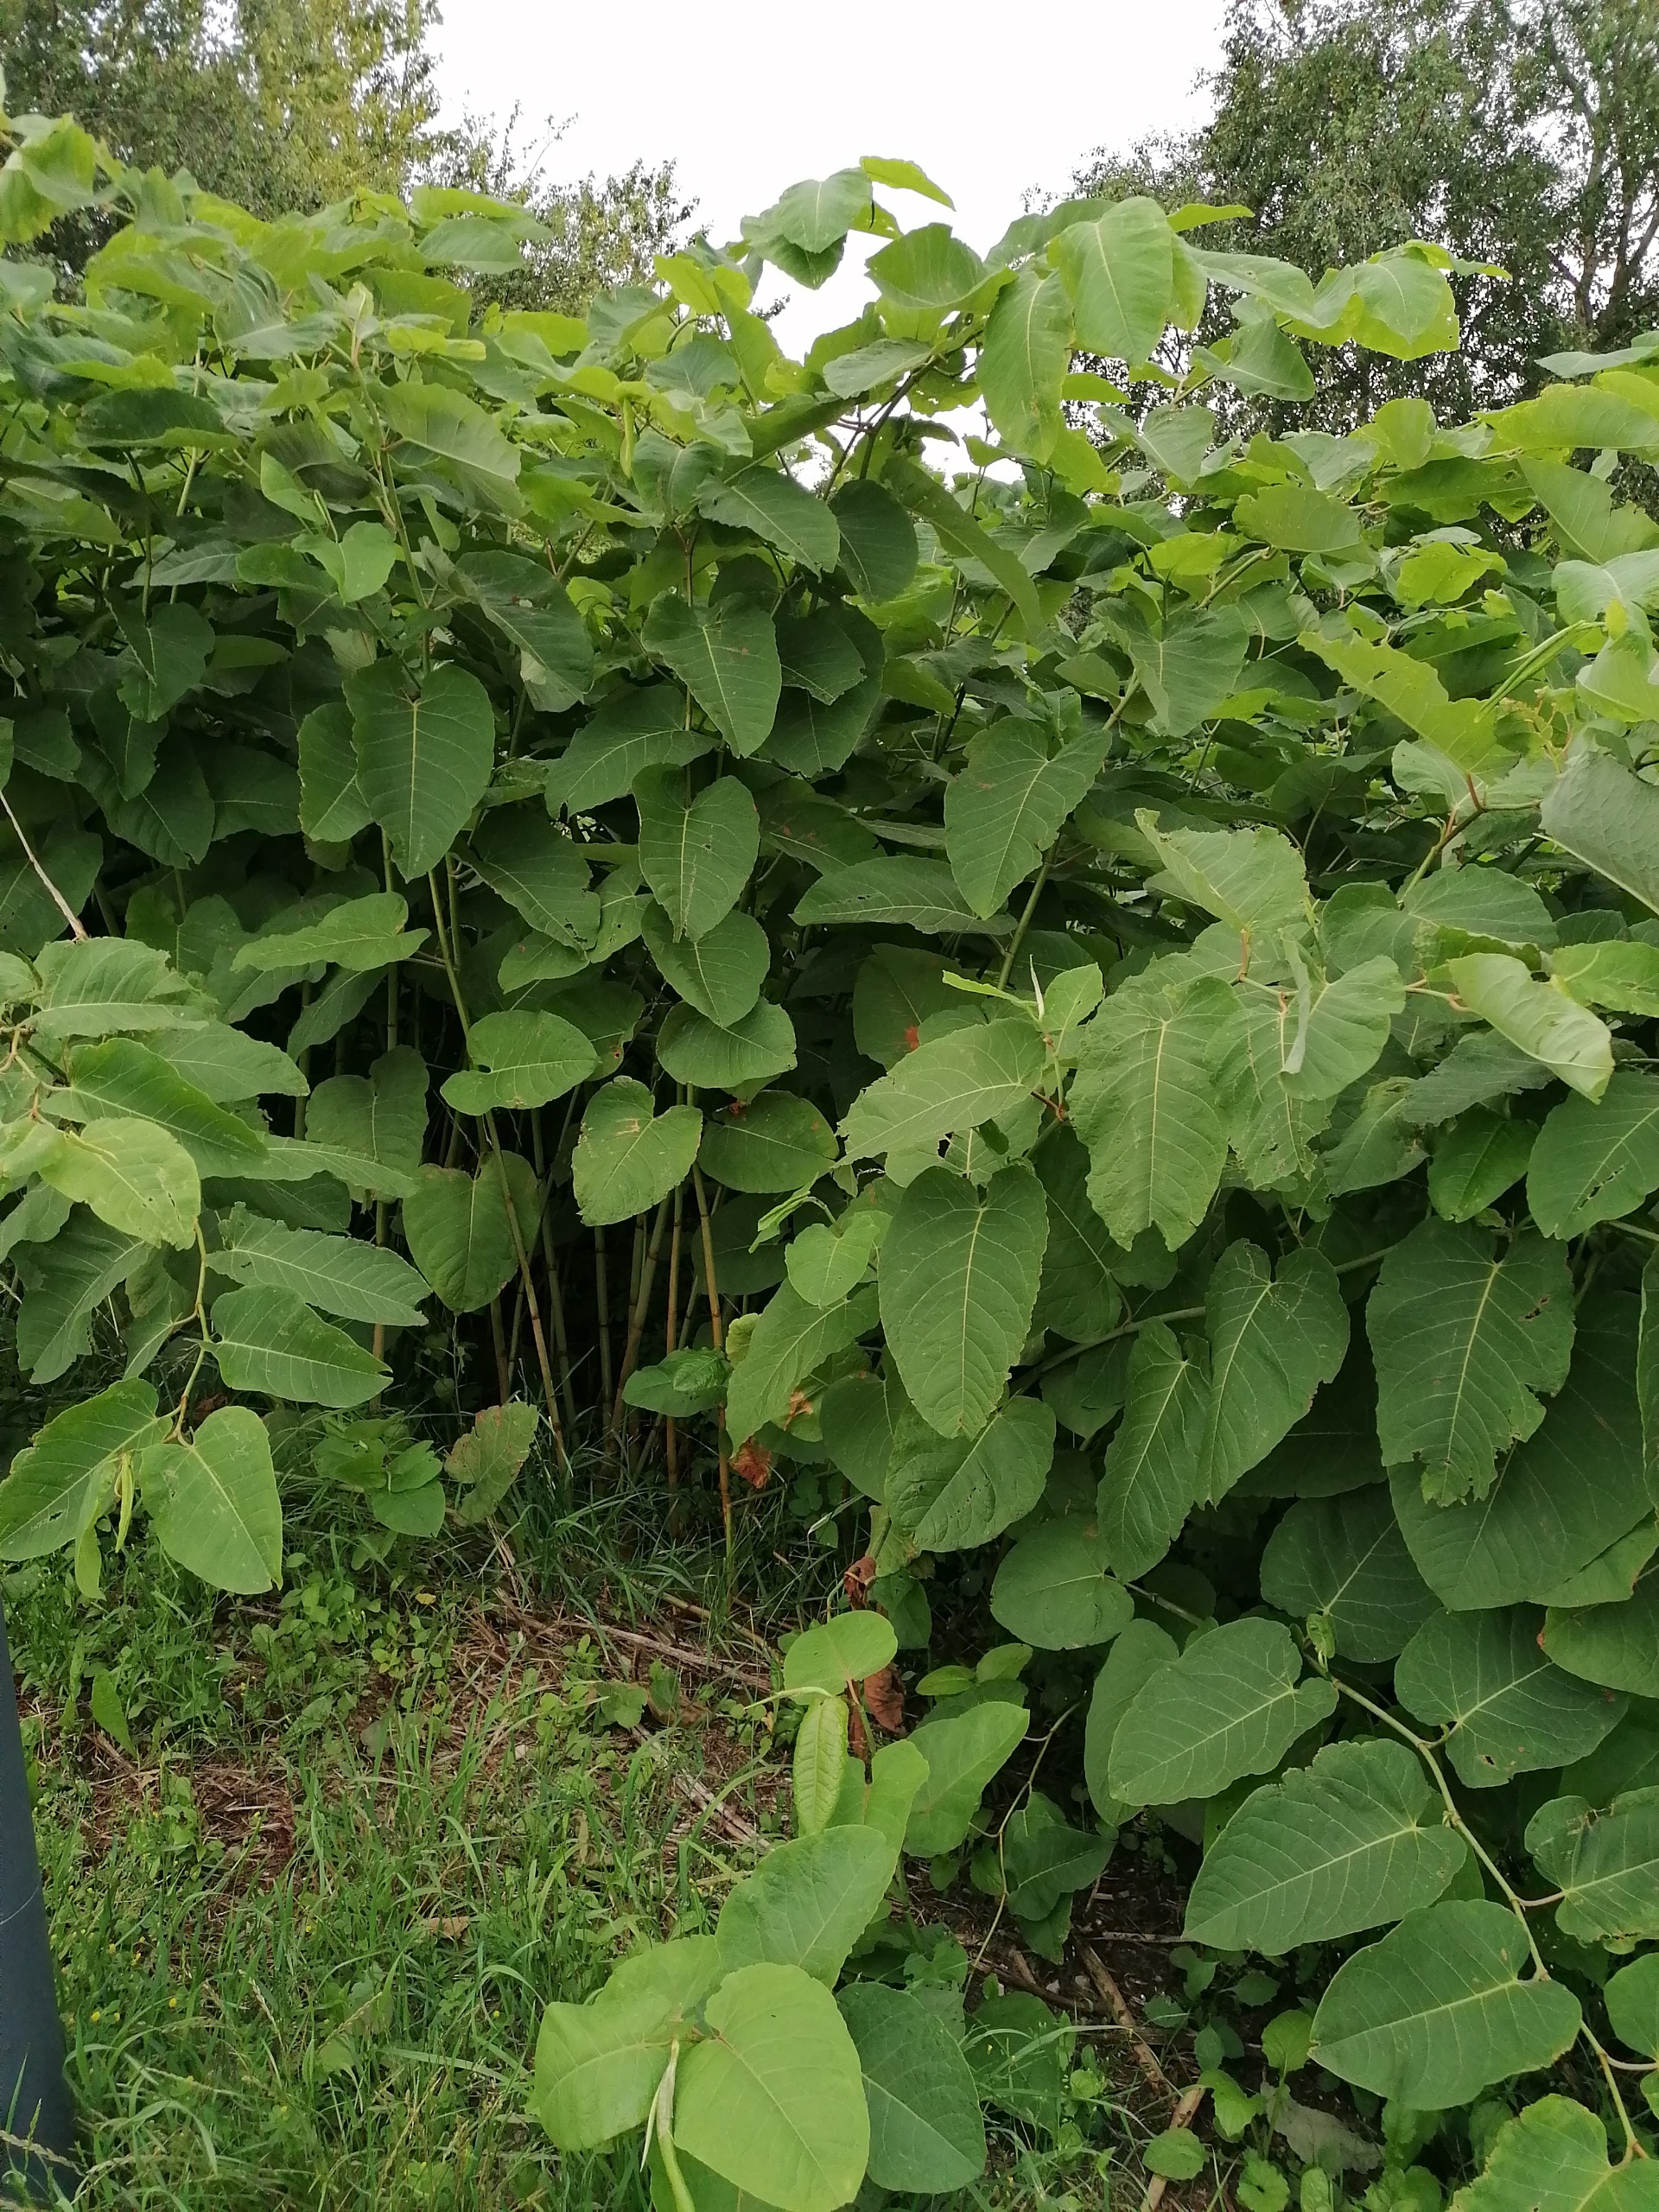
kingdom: Plantae
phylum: Tracheophyta
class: Magnoliopsida
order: Caryophyllales
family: Polygonaceae
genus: Reynoutria
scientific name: Reynoutria sachalinensis
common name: Kæmpe-pileurt
